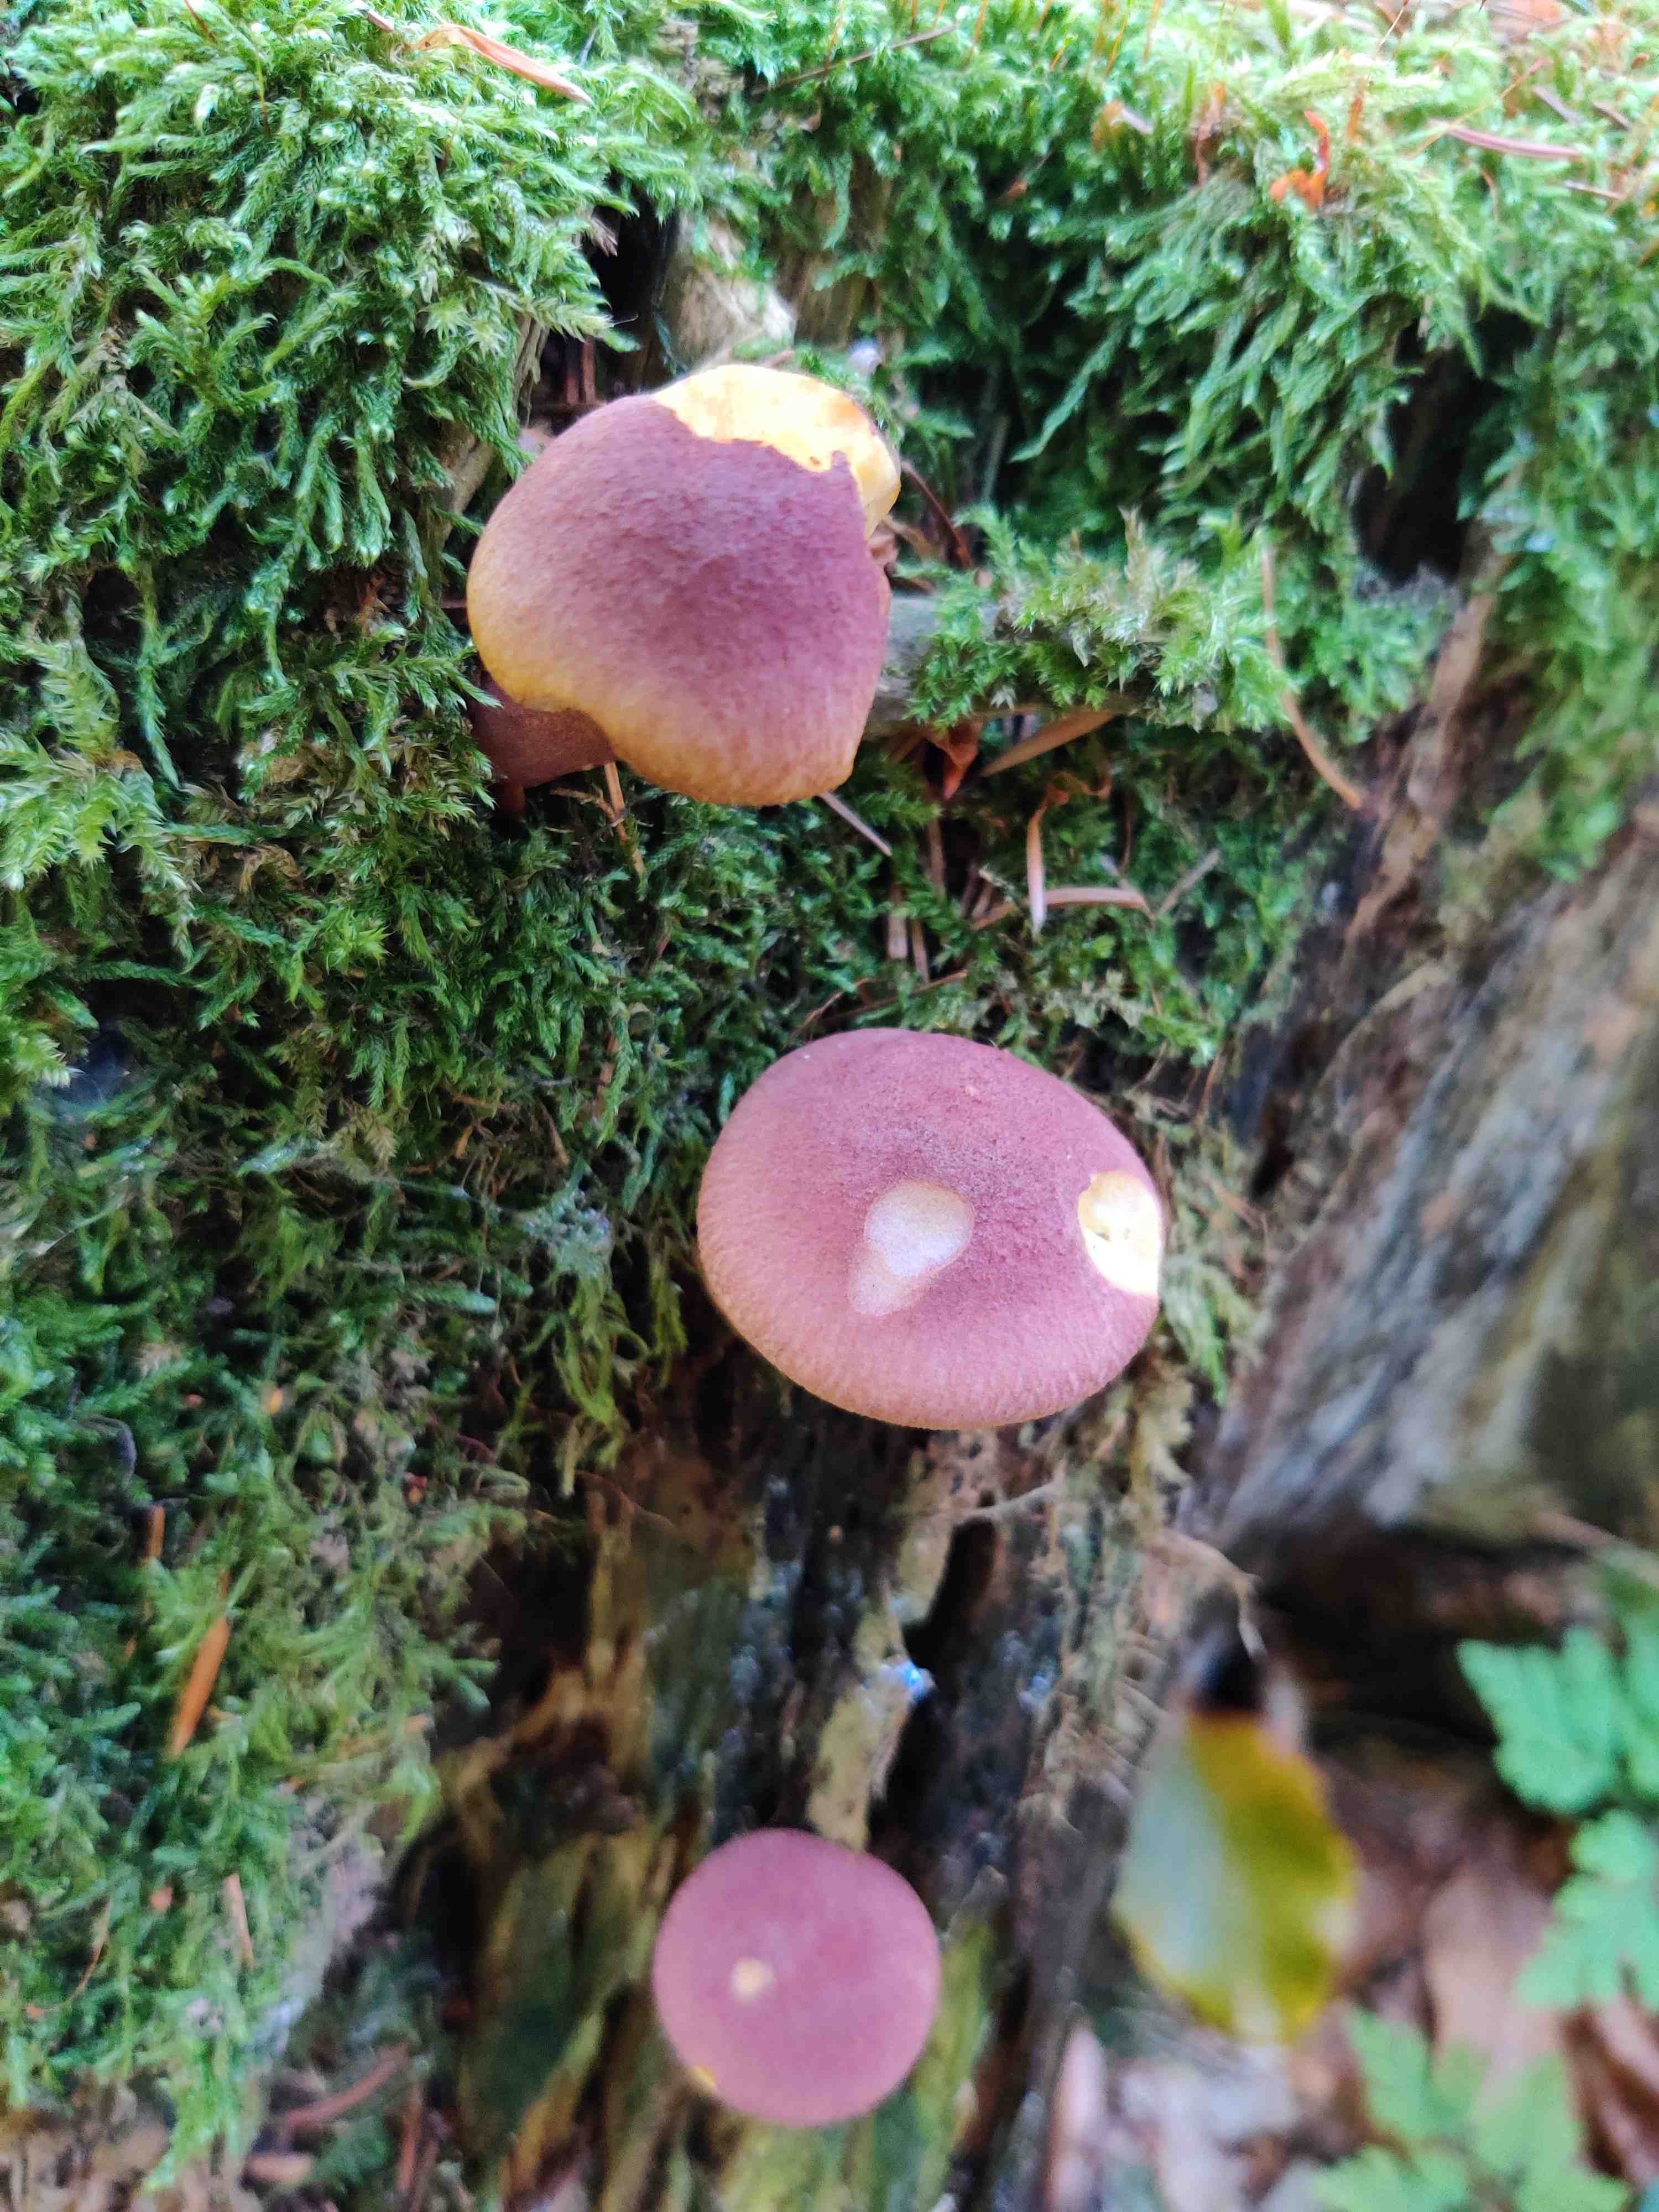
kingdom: Fungi
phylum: Basidiomycota
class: Agaricomycetes
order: Agaricales
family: Tricholomataceae
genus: Tricholomopsis
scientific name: Tricholomopsis rutilans
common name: purpur-væbnerhat
